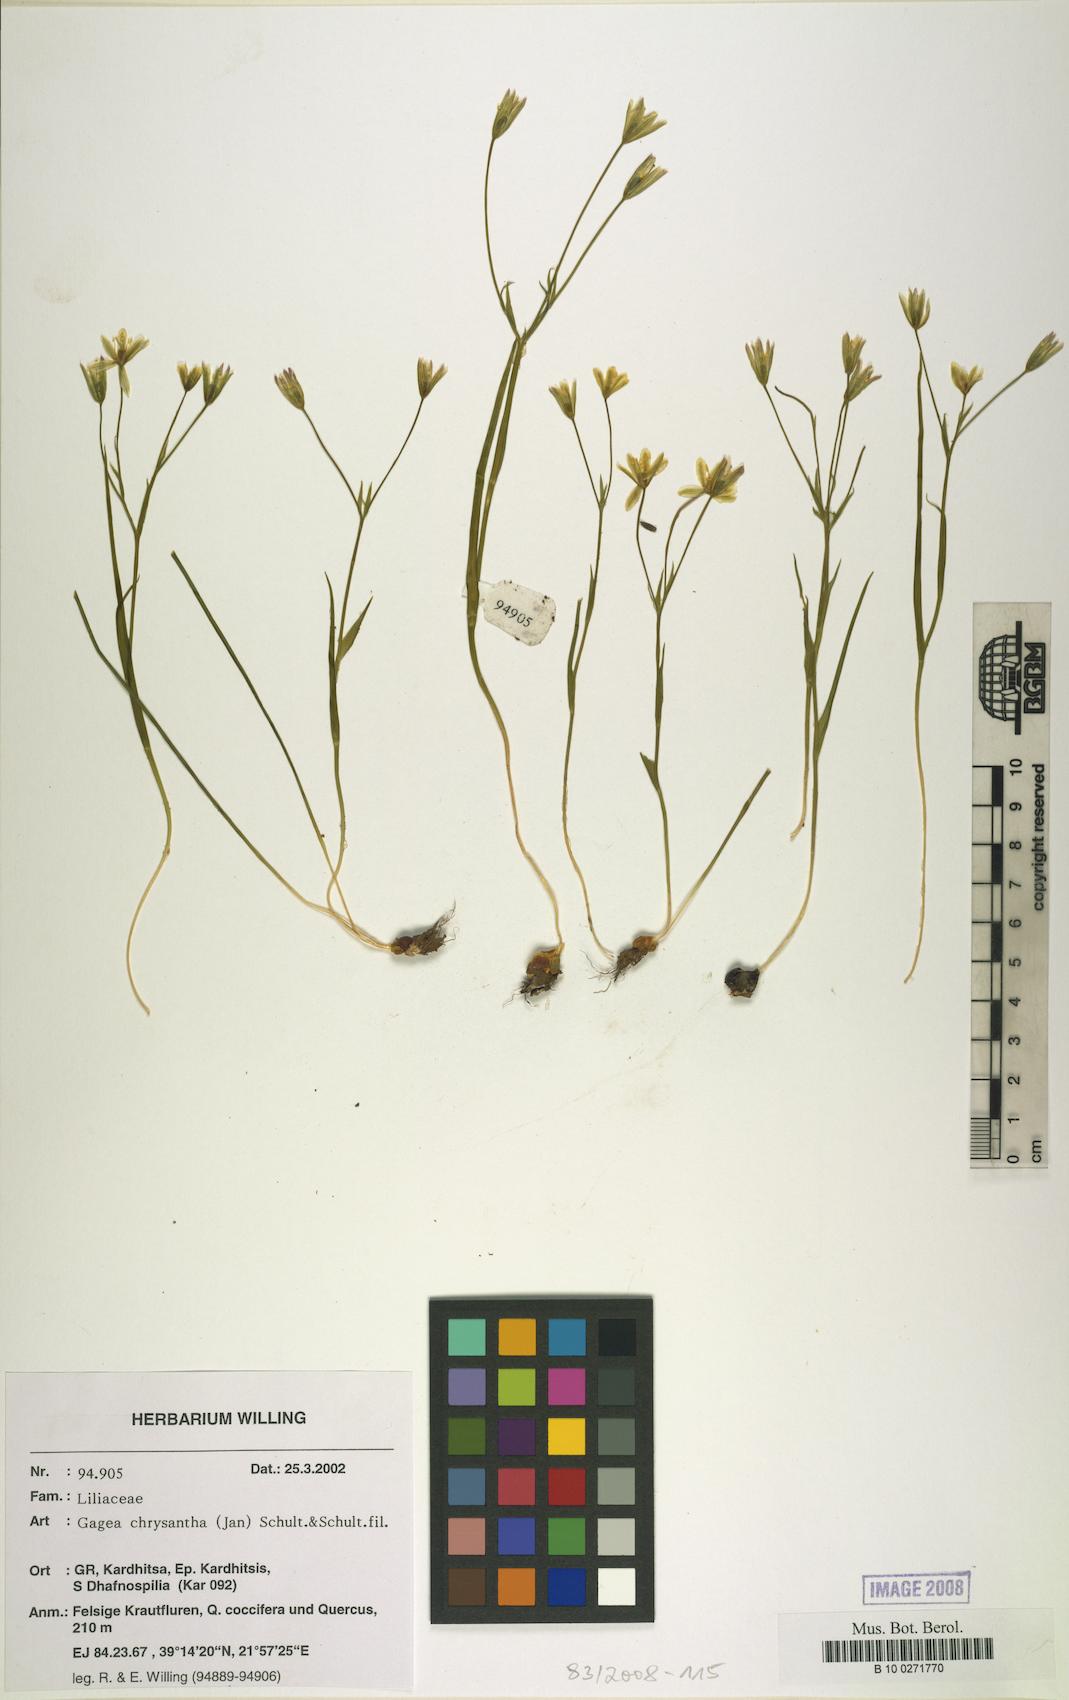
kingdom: Plantae
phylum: Tracheophyta
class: Liliopsida
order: Liliales
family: Liliaceae
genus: Gagea
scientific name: Gagea chrysantha
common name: Golden gagea
